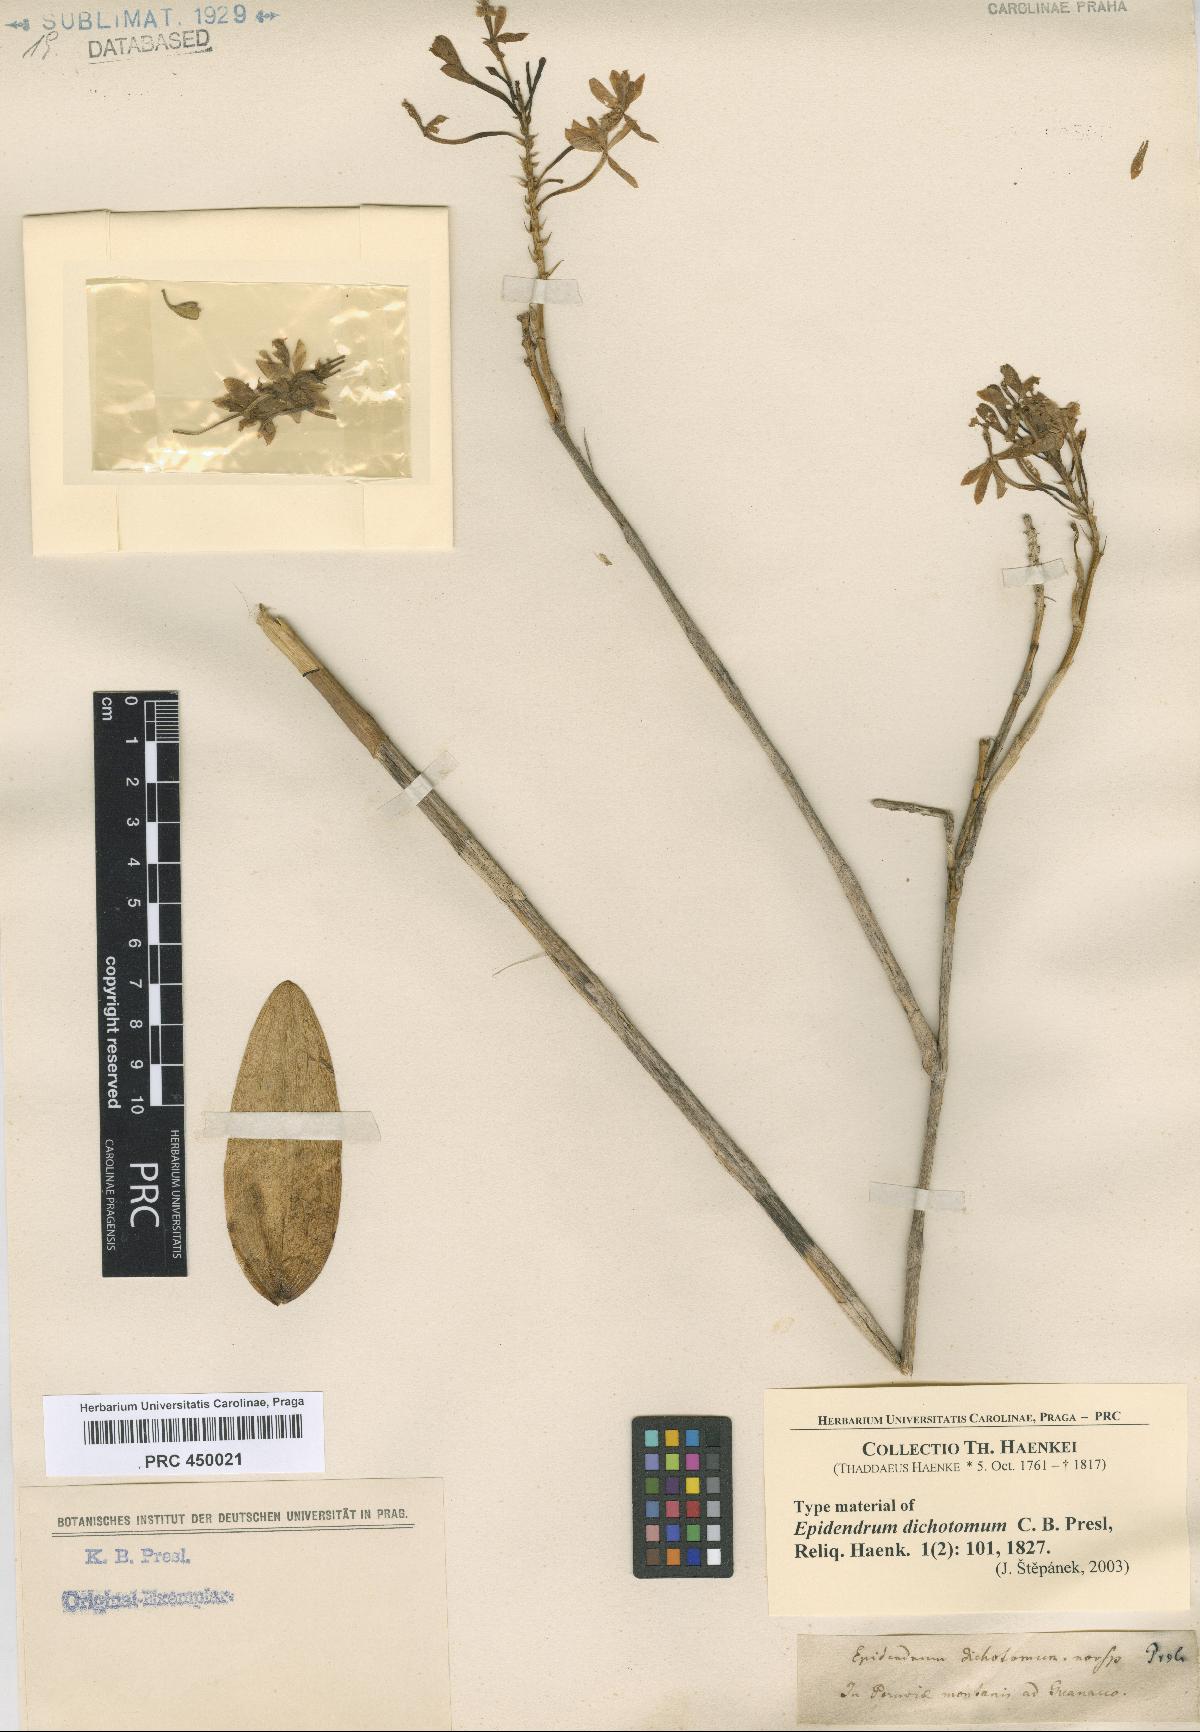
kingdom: Plantae
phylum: Tracheophyta
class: Liliopsida
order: Asparagales
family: Orchidaceae
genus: Epidendrum
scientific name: Epidendrum dichotomum
